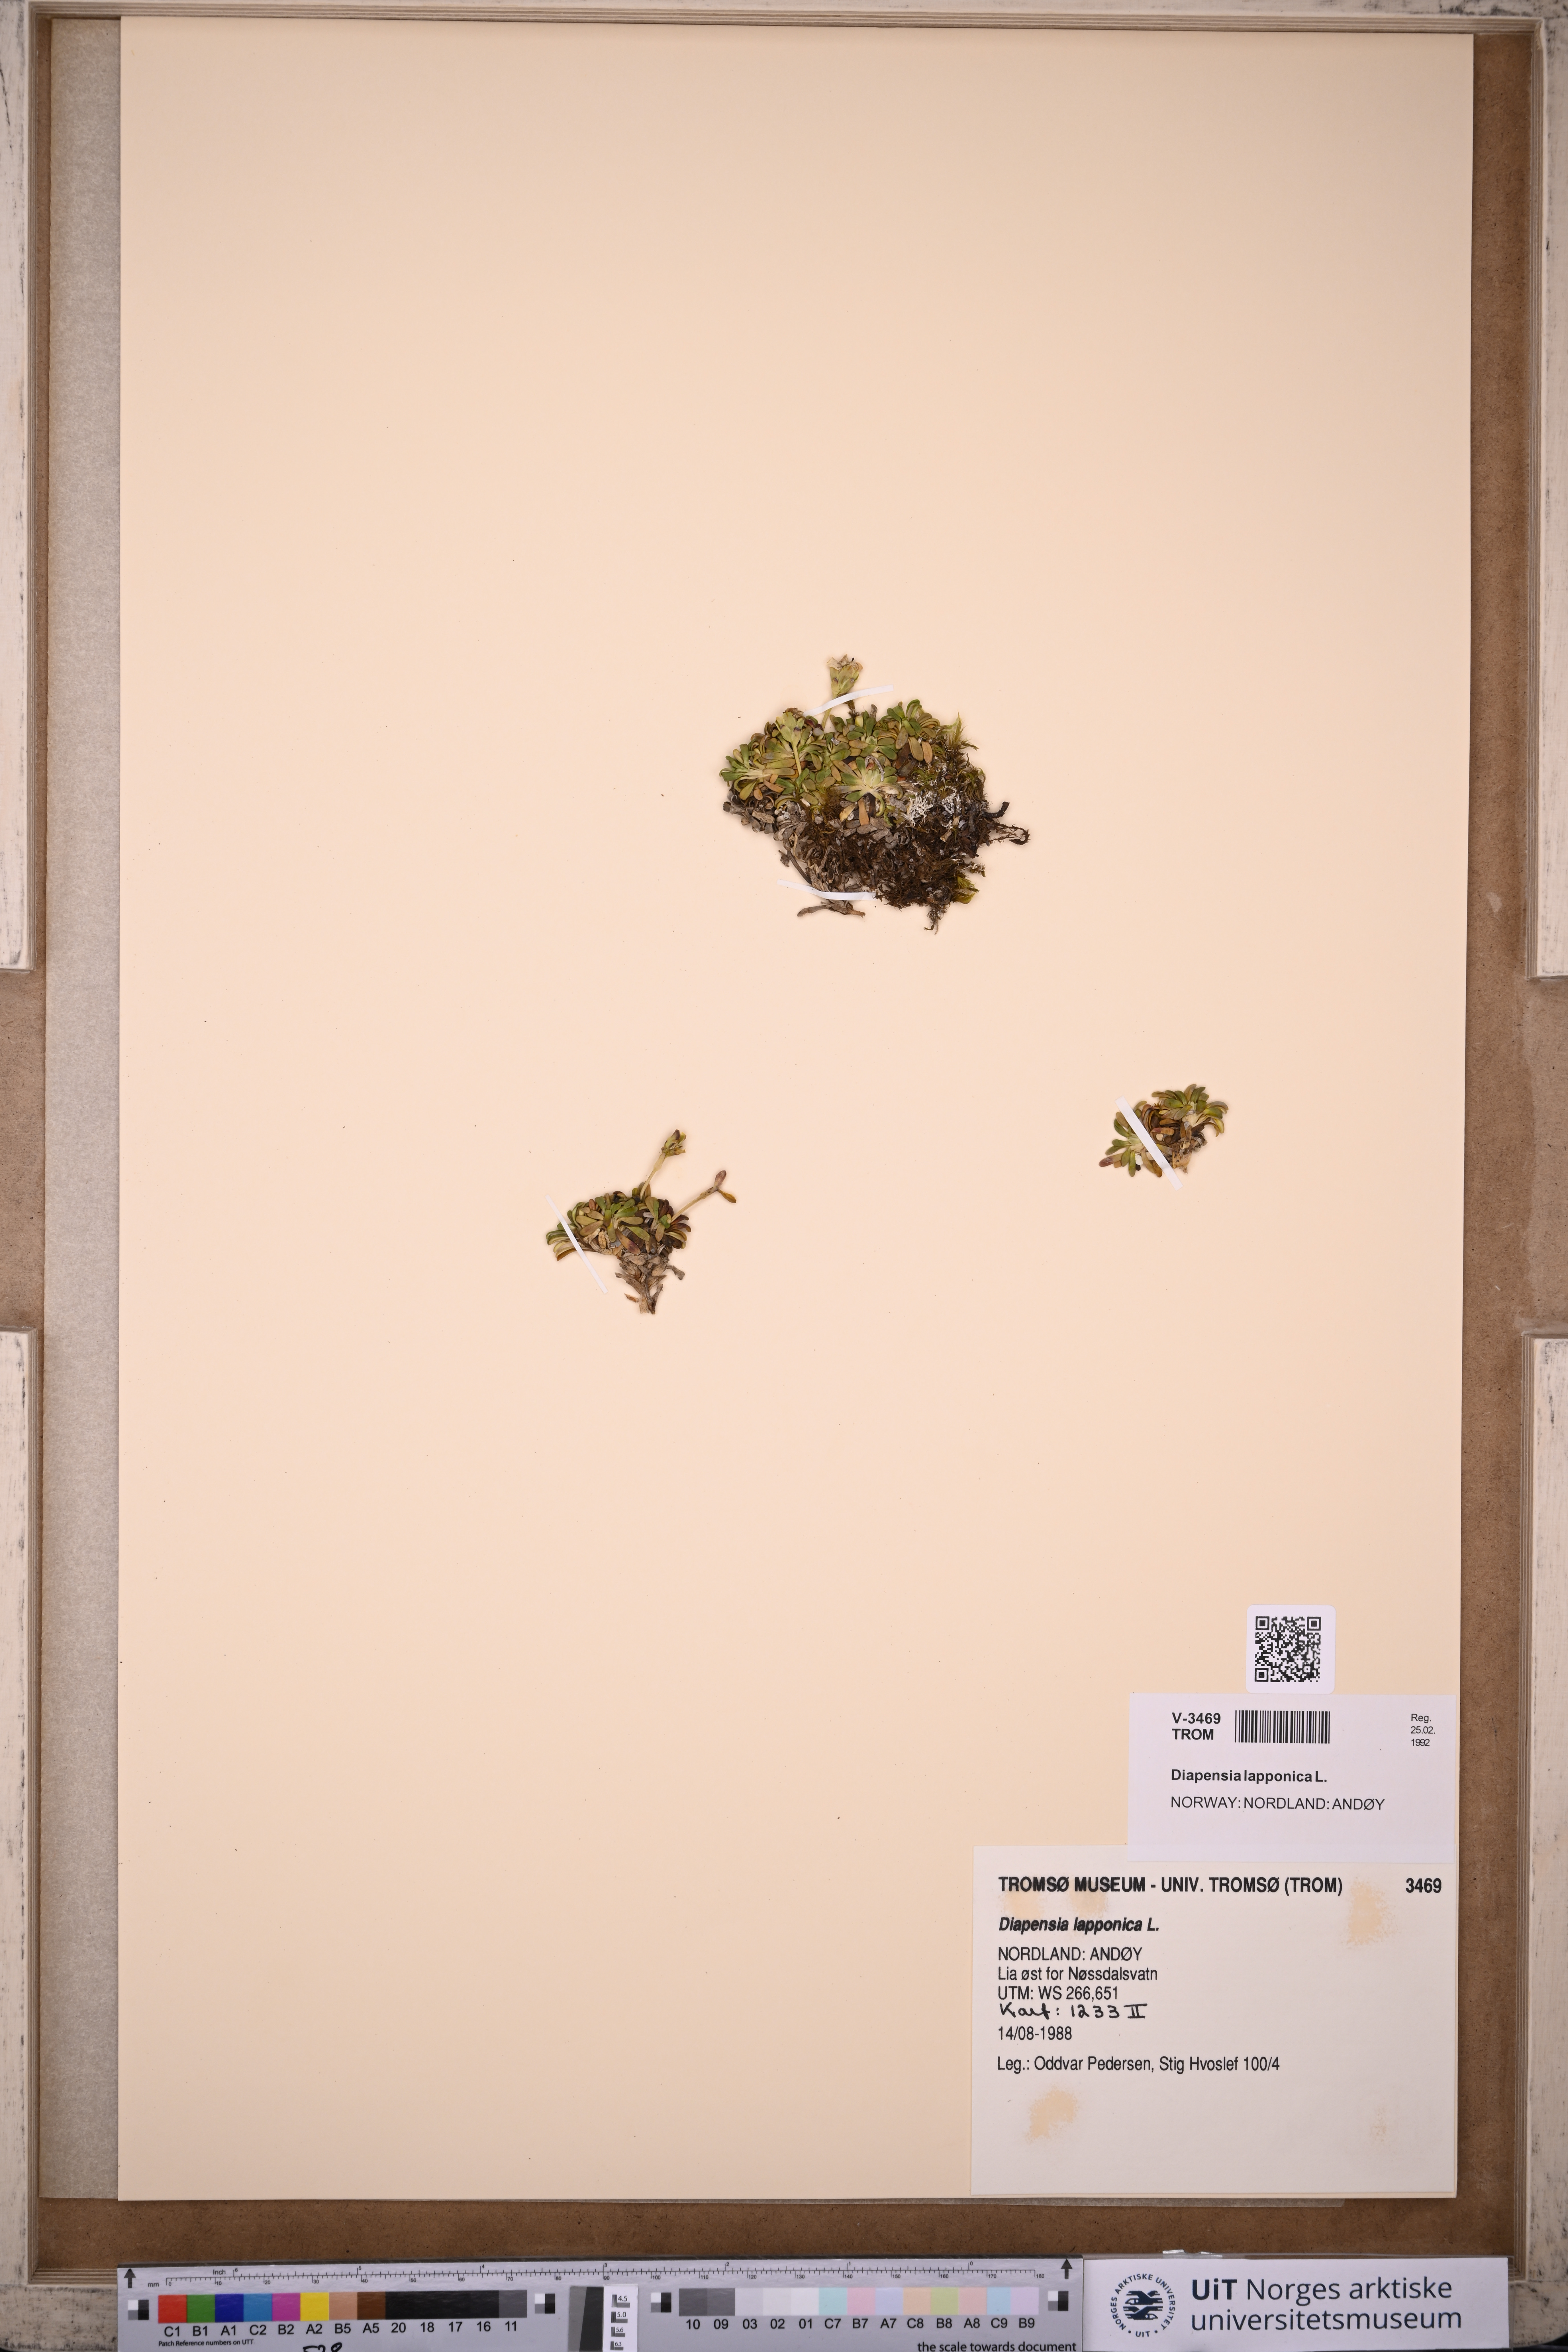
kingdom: Plantae
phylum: Tracheophyta
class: Magnoliopsida
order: Ericales
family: Diapensiaceae
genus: Diapensia
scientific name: Diapensia lapponica
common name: Diapensia
